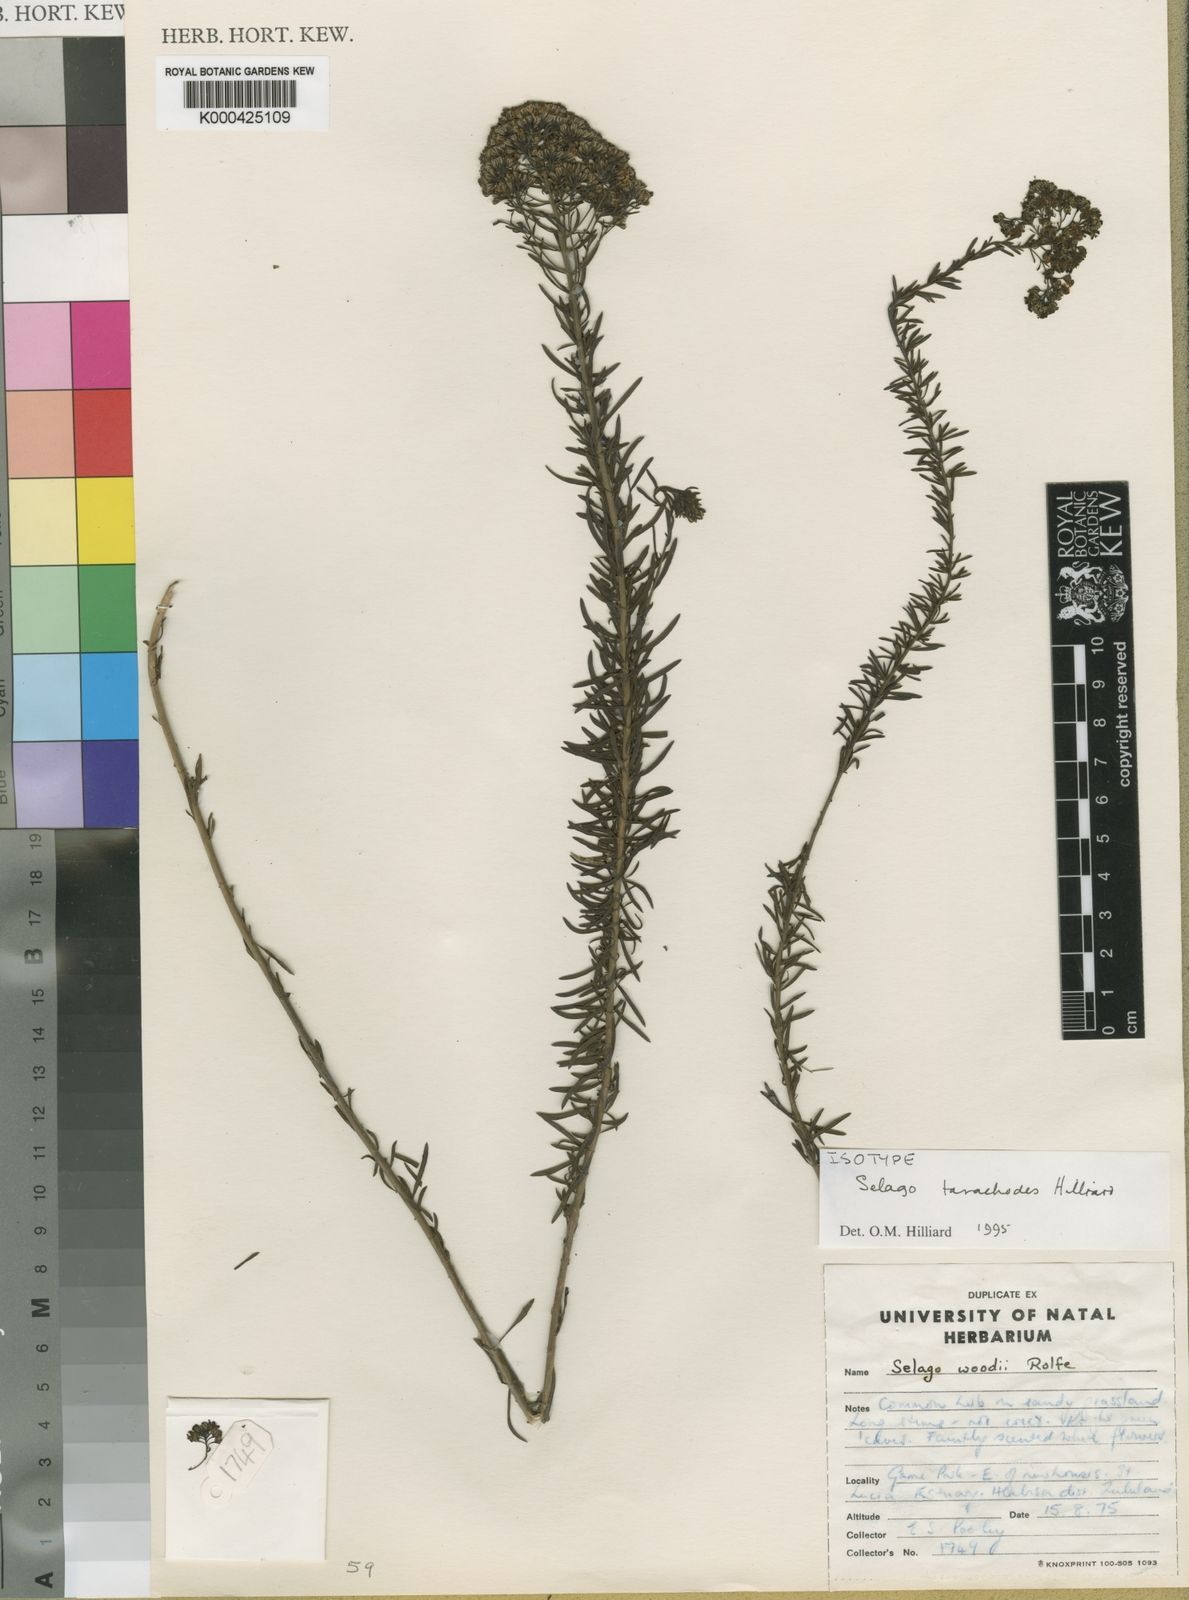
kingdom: Plantae
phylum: Tracheophyta
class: Magnoliopsida
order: Lamiales
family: Scrophulariaceae
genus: Selago
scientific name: Selago tarachodes
